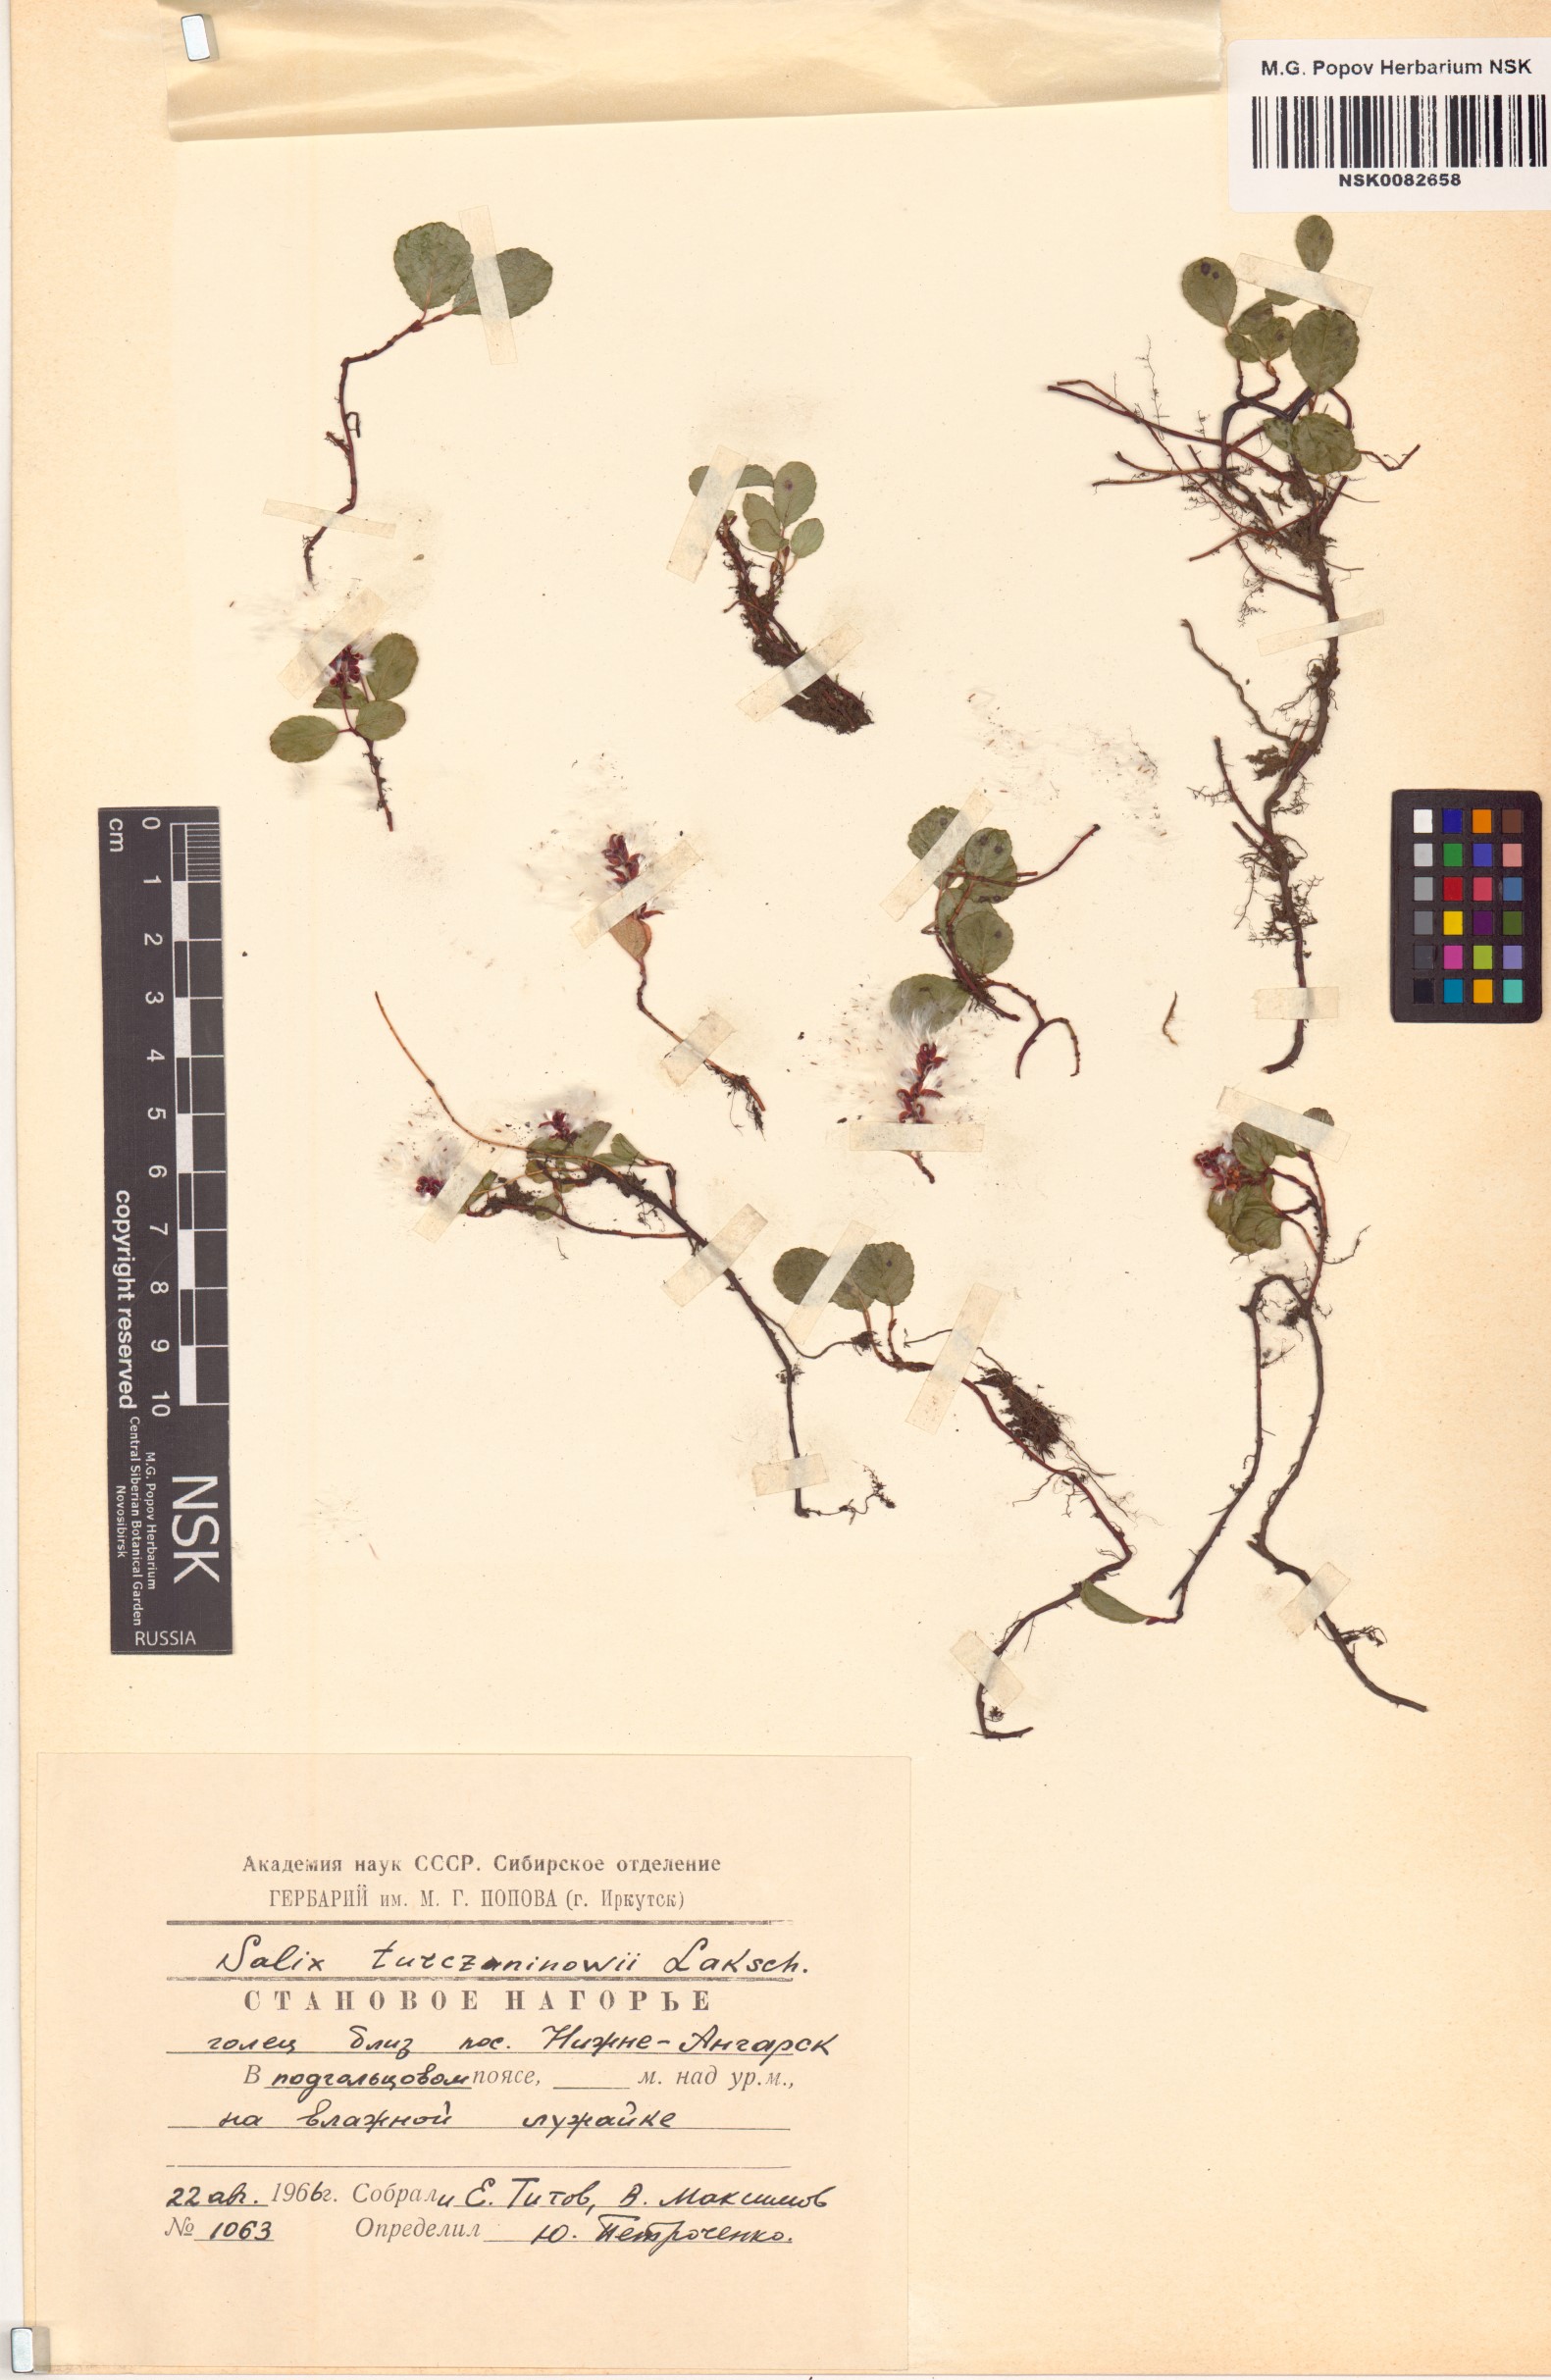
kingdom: Plantae
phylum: Tracheophyta
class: Magnoliopsida
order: Malpighiales
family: Salicaceae
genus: Salix
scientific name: Salix turczaninowii
